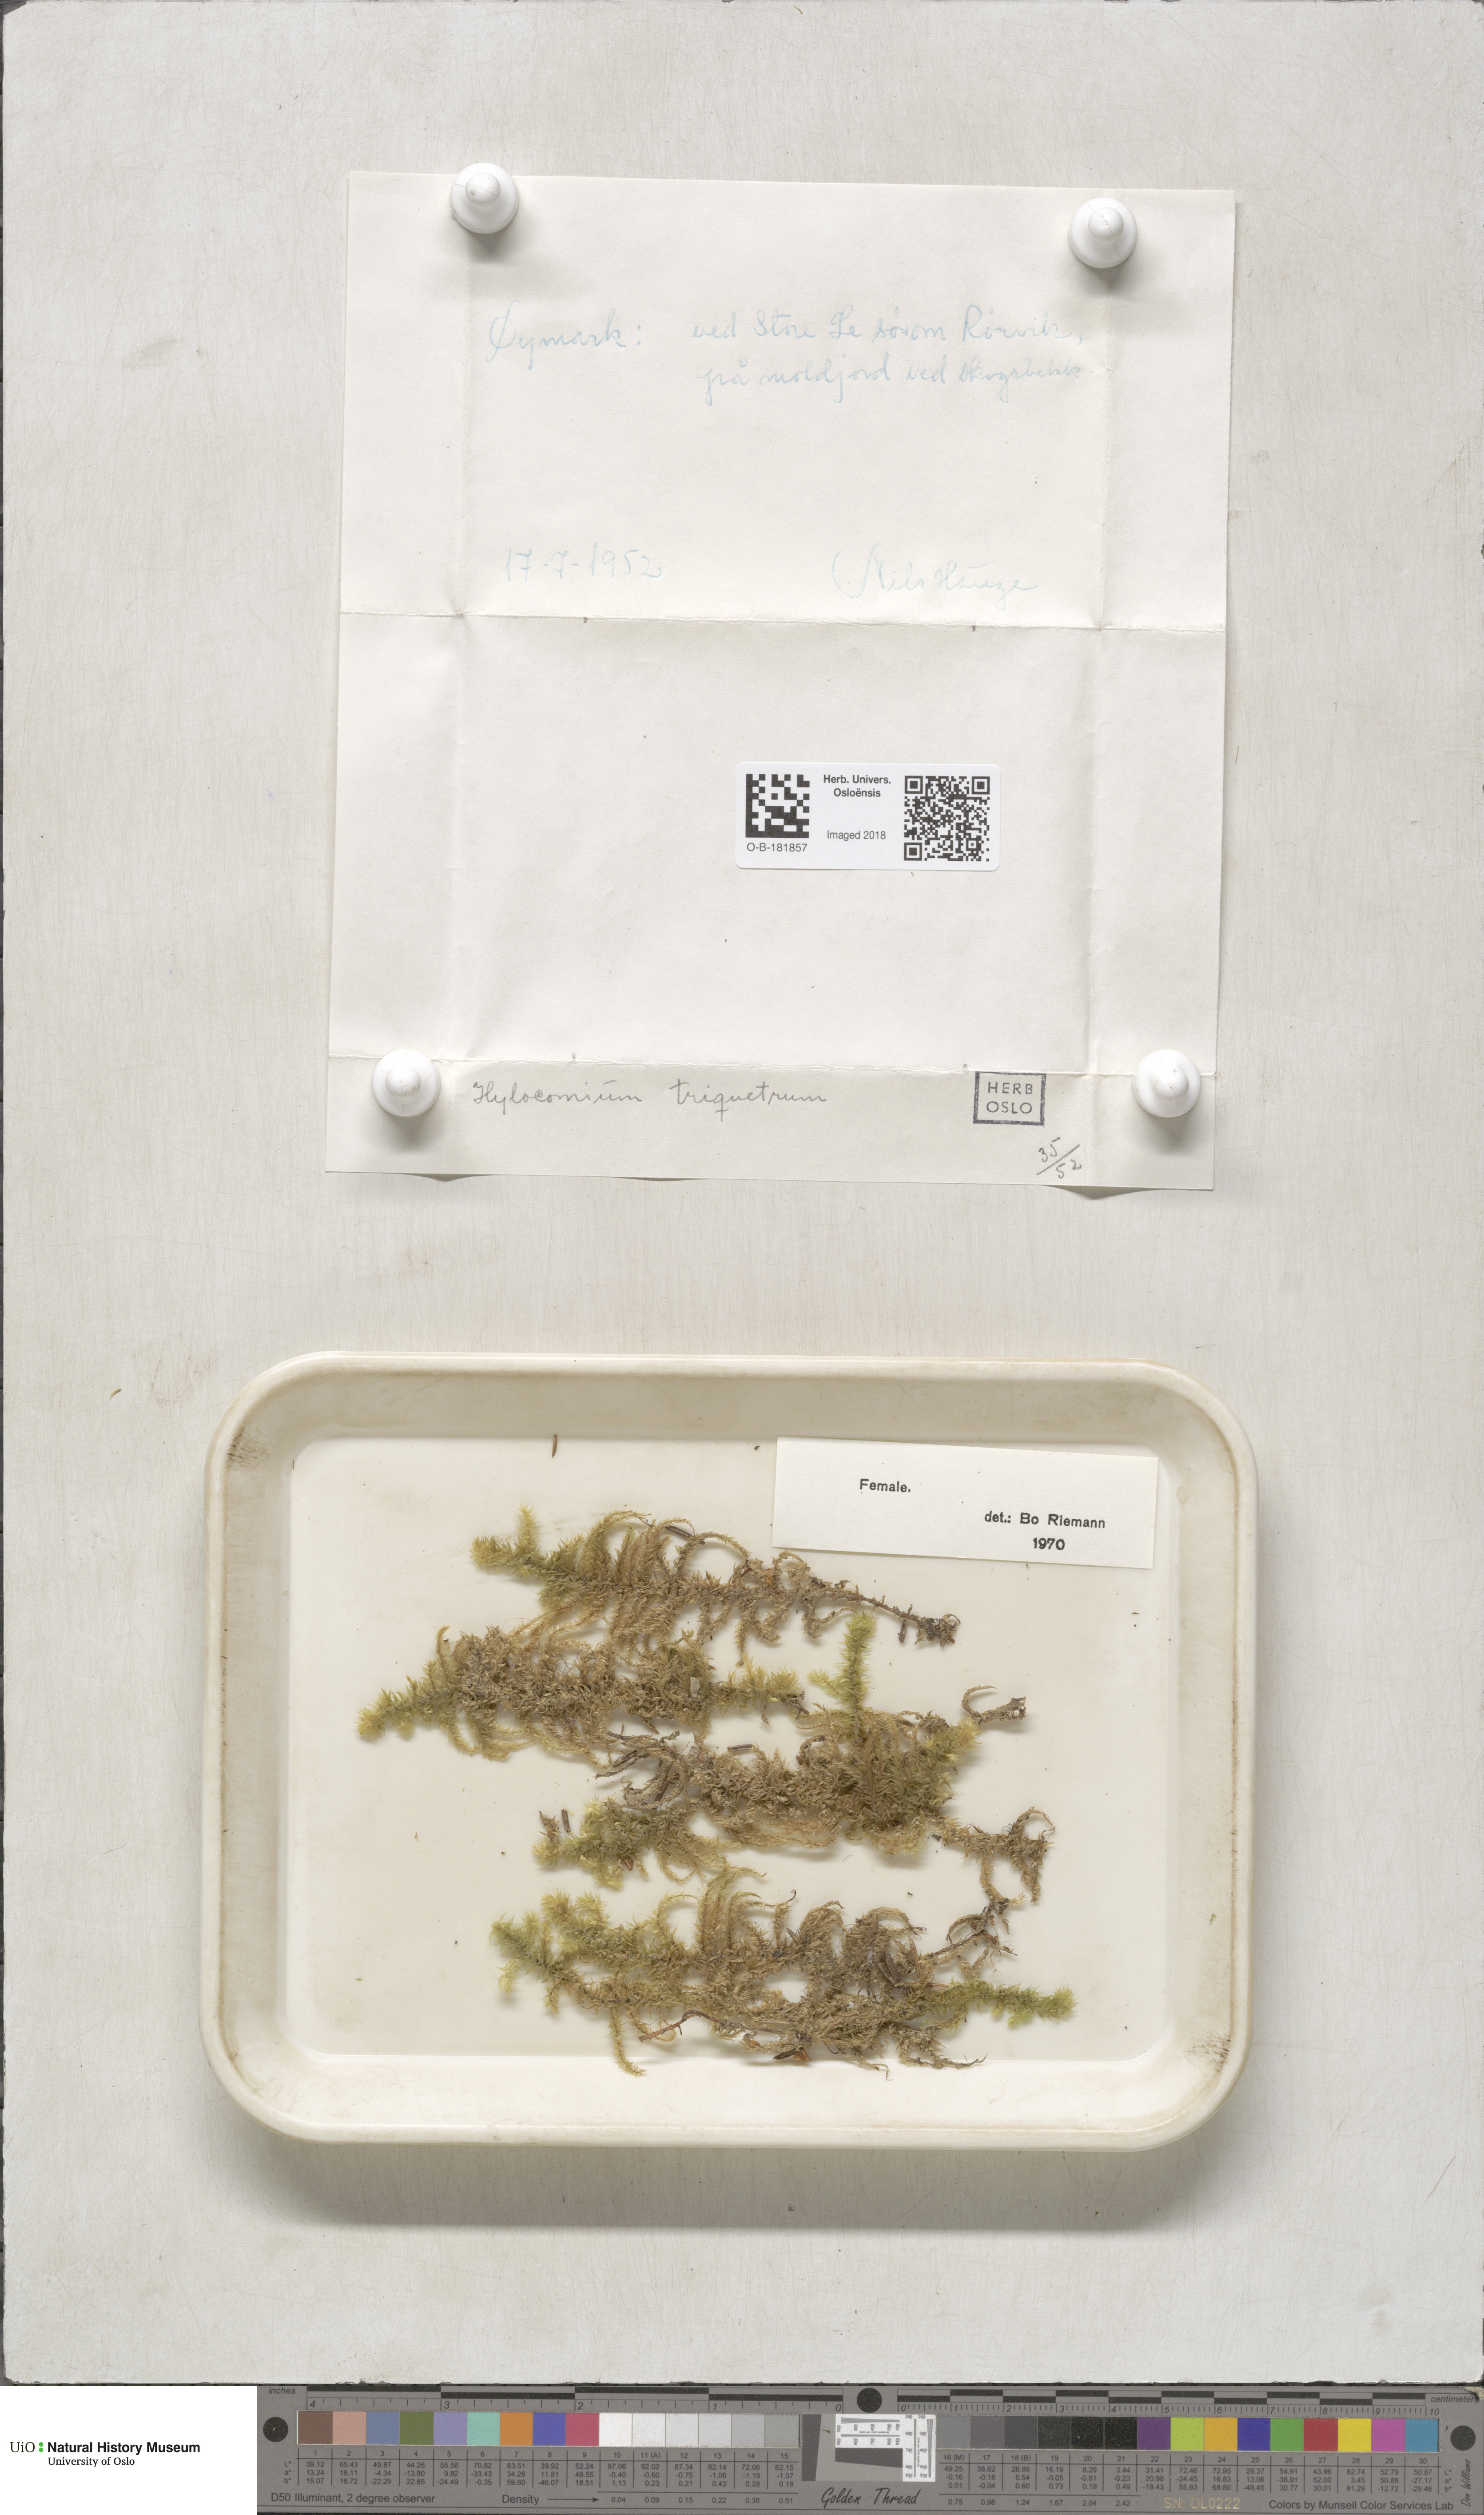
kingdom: Plantae
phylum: Bryophyta
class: Bryopsida
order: Hypnales
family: Hylocomiaceae
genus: Hylocomiadelphus
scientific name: Hylocomiadelphus triquetrus
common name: Rough goose neck moss
